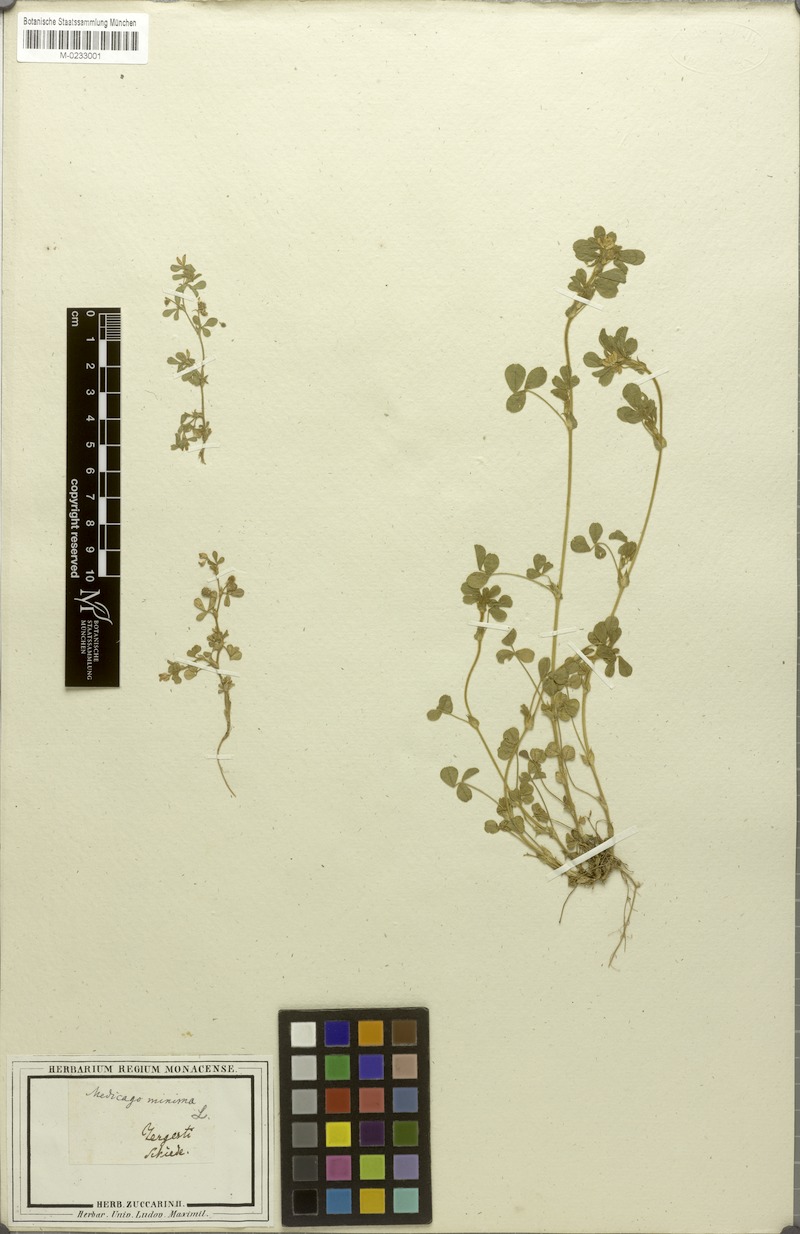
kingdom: Plantae
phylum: Tracheophyta
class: Magnoliopsida
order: Fabales
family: Fabaceae
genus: Medicago
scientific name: Medicago minima
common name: Little bur-clover
